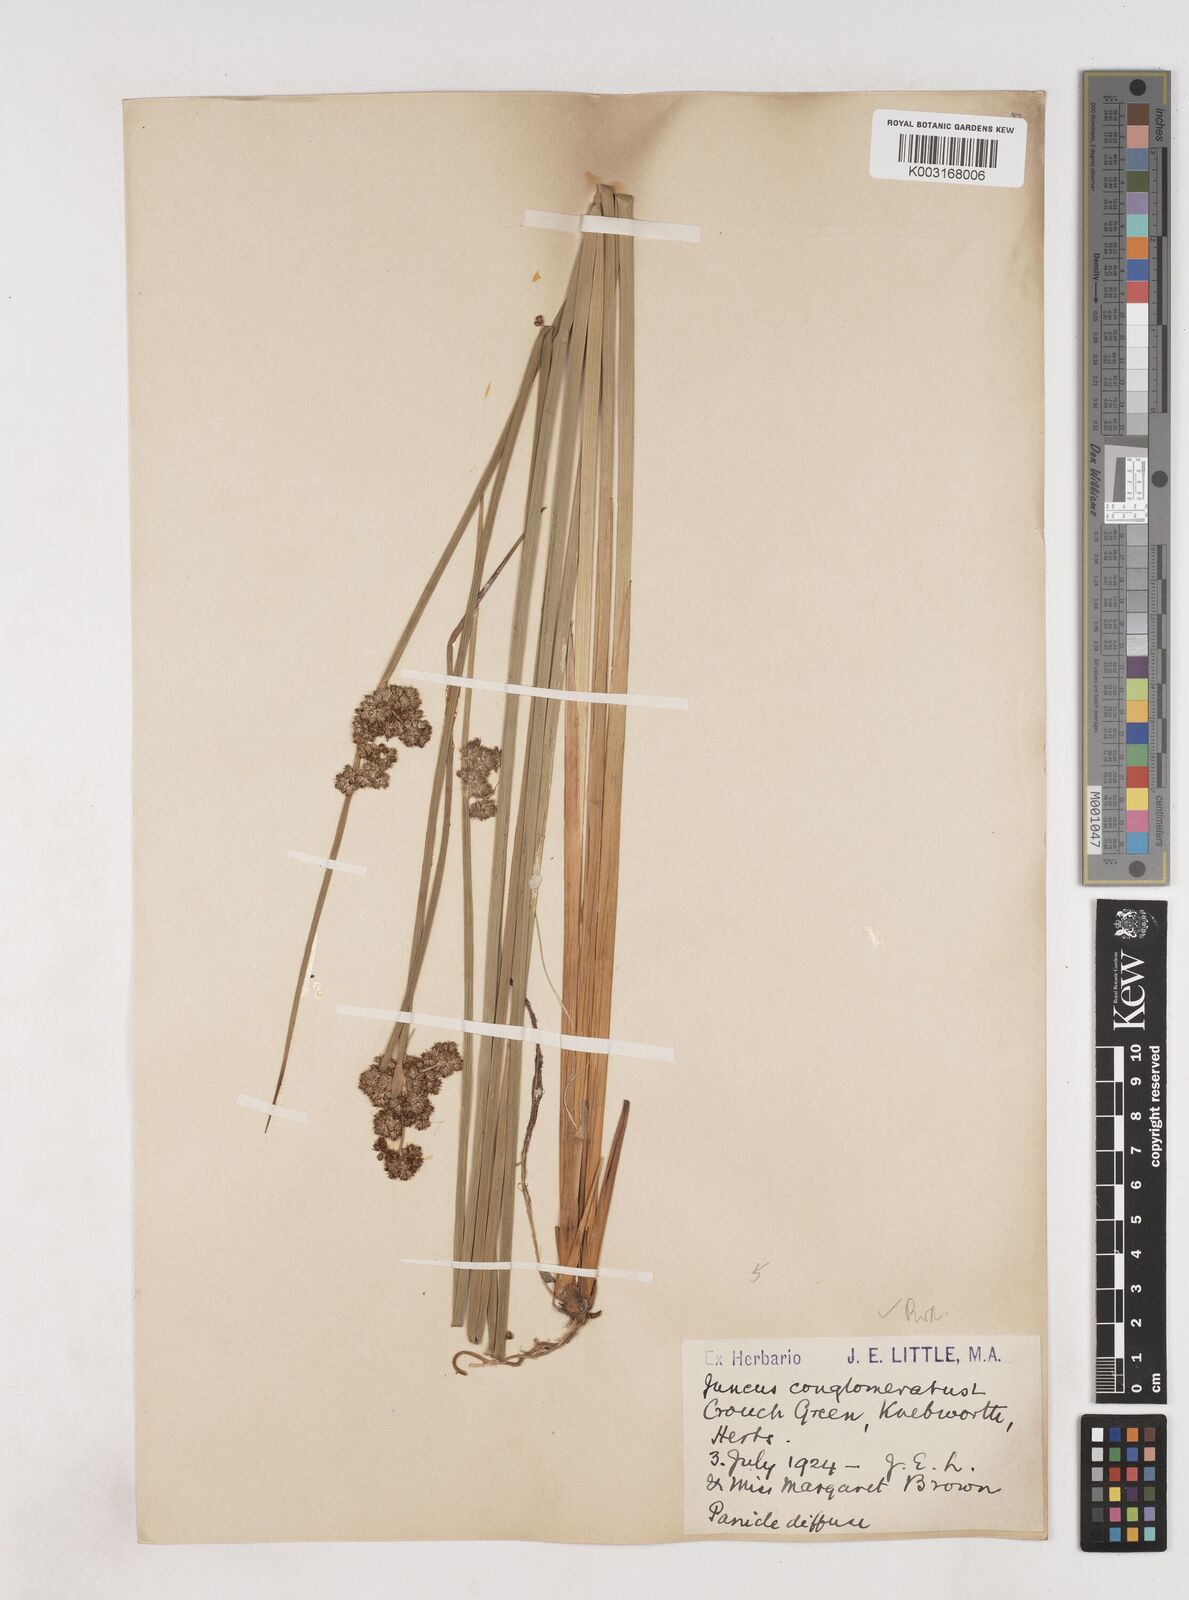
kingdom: Plantae
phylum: Tracheophyta
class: Liliopsida
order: Poales
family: Juncaceae
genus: Juncus
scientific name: Juncus conglomeratus
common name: Compact rush
